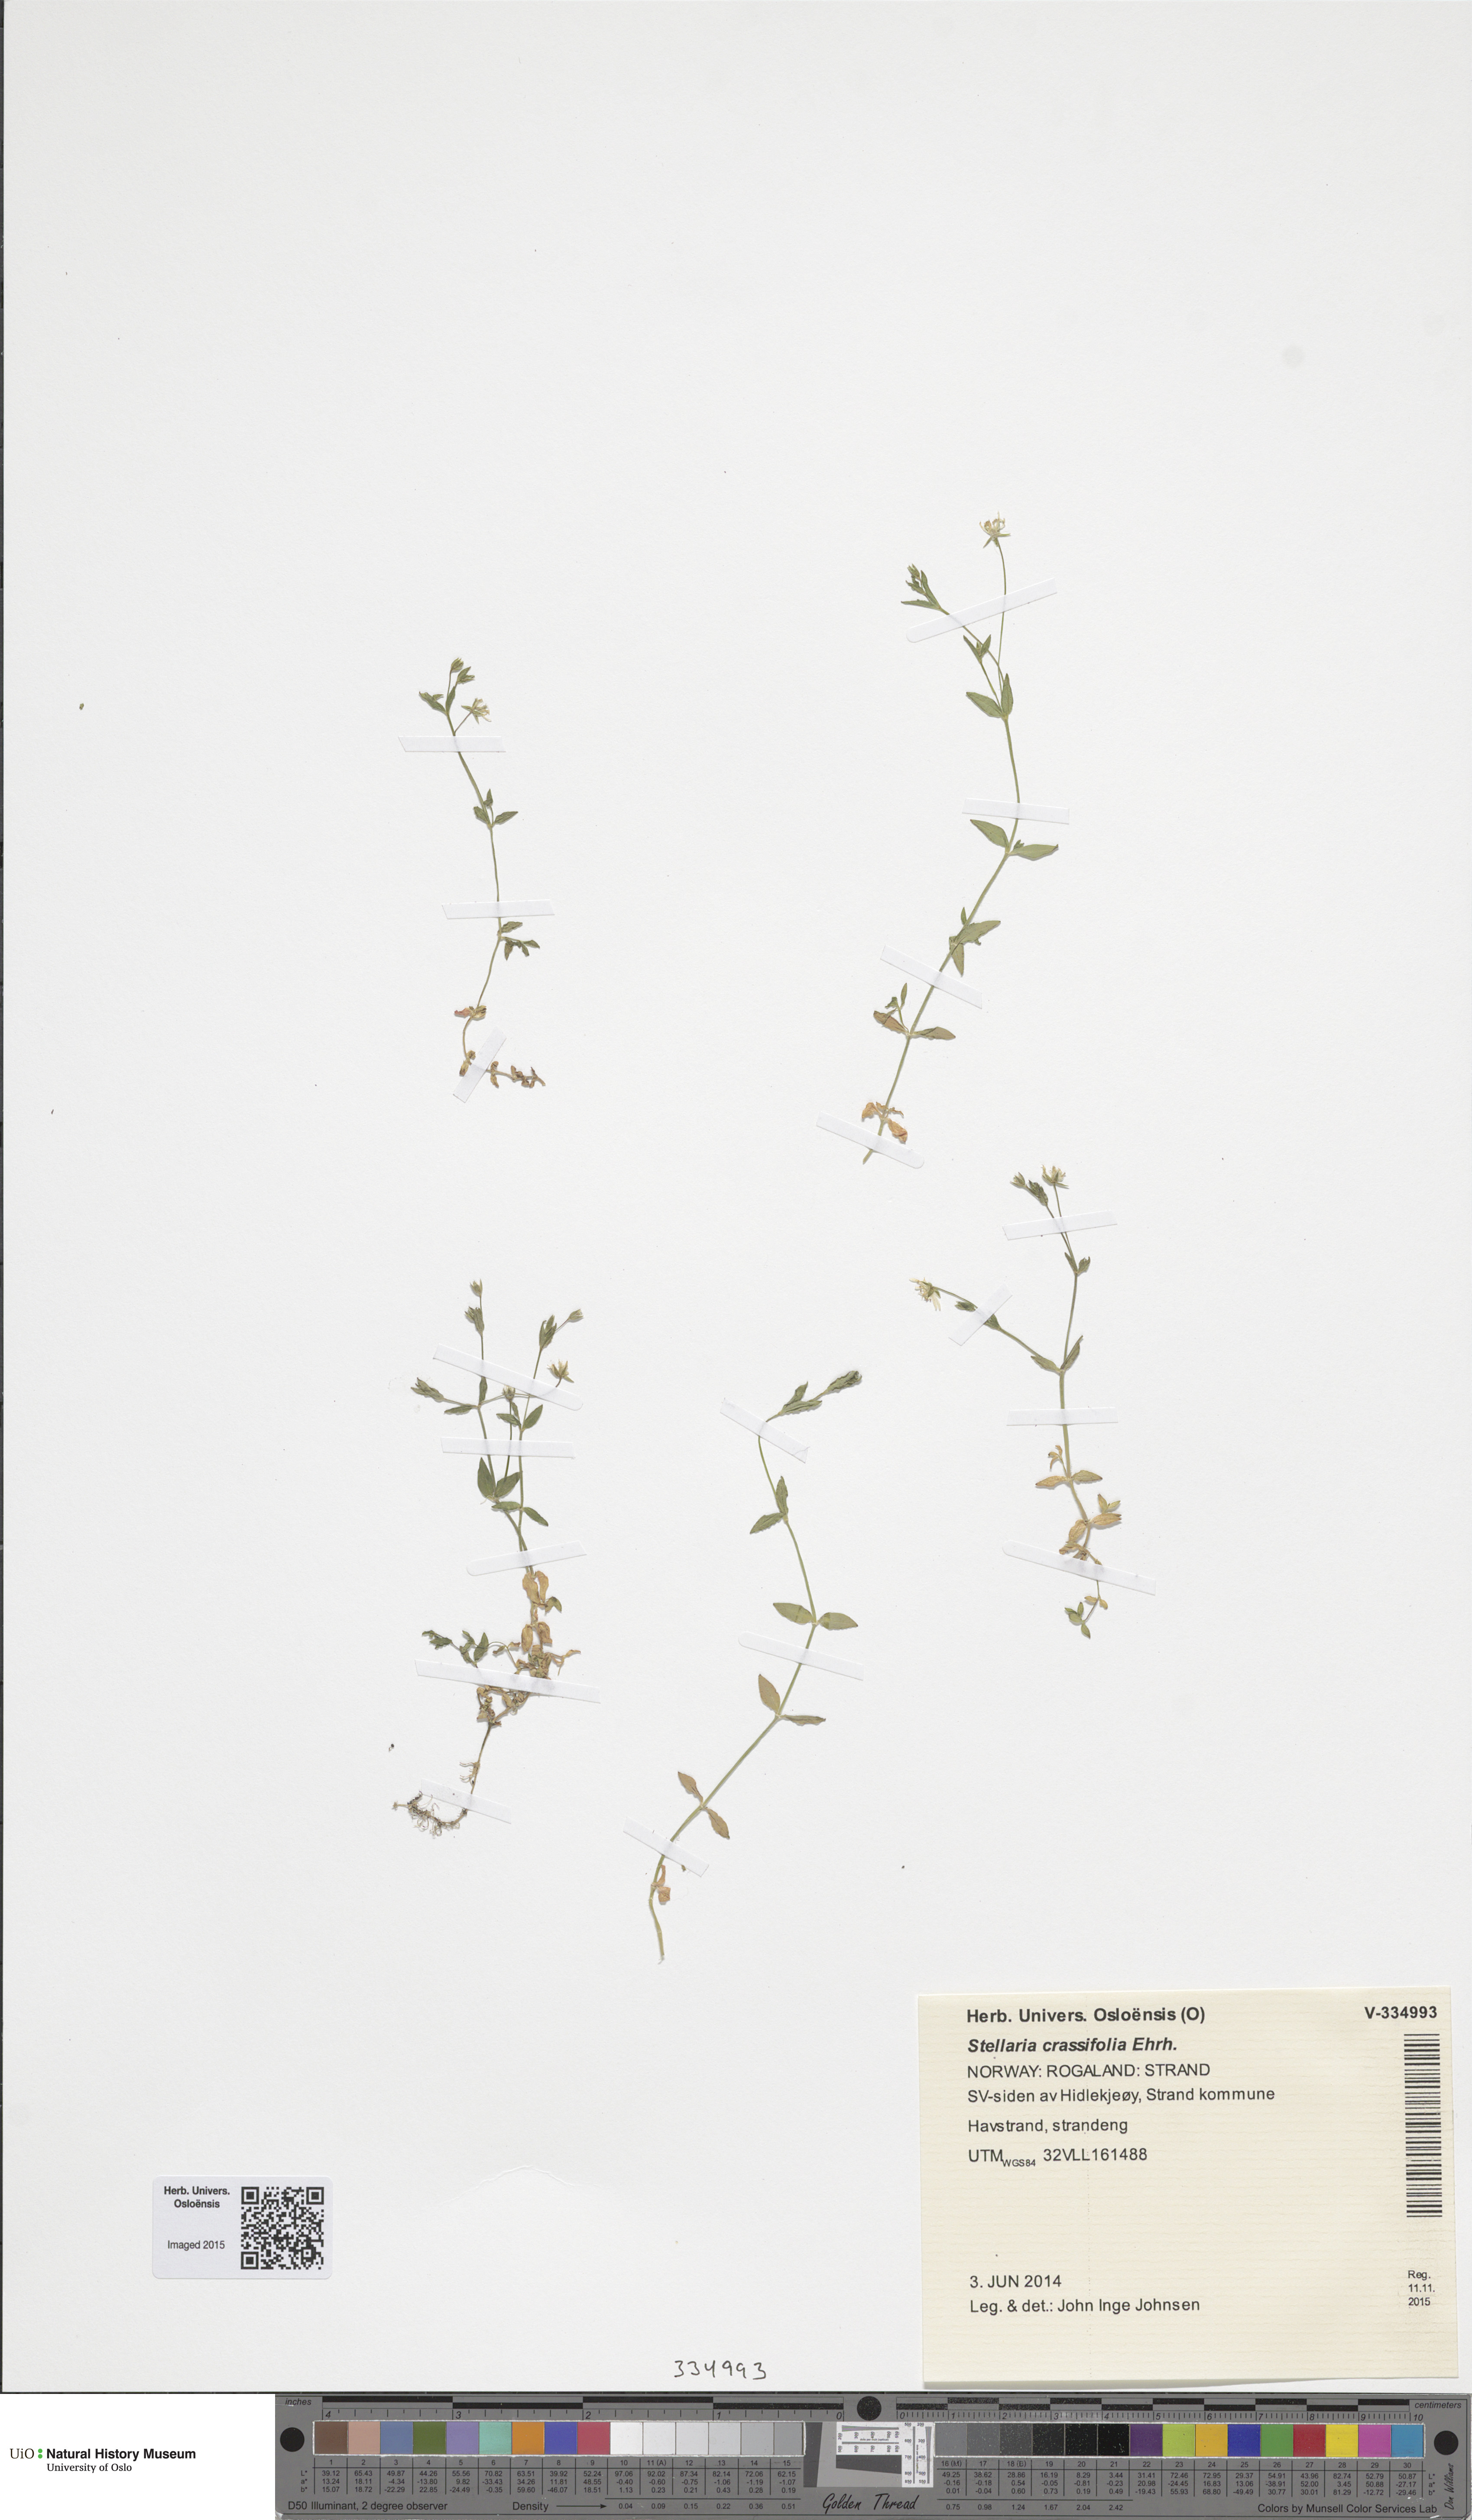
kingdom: Plantae
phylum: Tracheophyta
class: Magnoliopsida
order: Caryophyllales
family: Caryophyllaceae
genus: Stellaria
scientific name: Stellaria crassifolia
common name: Fleshy starwort
